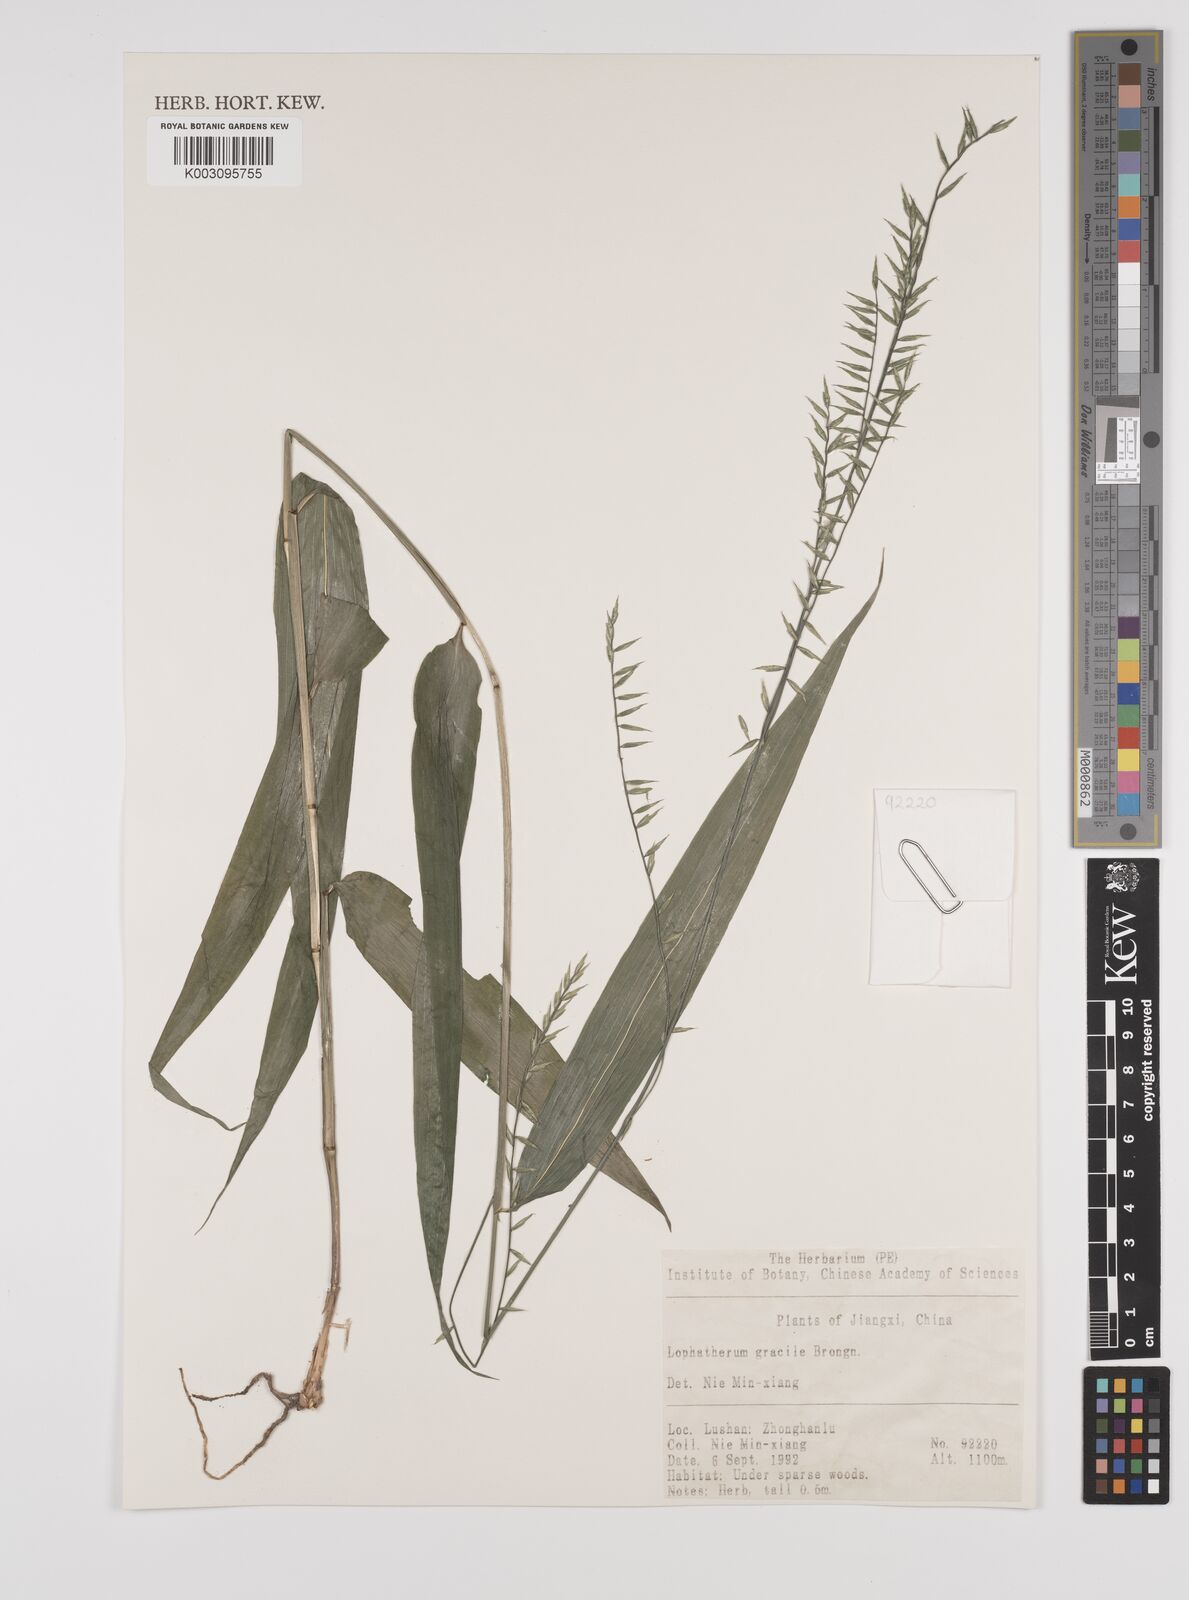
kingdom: Plantae
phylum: Tracheophyta
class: Liliopsida
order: Poales
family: Poaceae
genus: Lophatherum
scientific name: Lophatherum gracile
